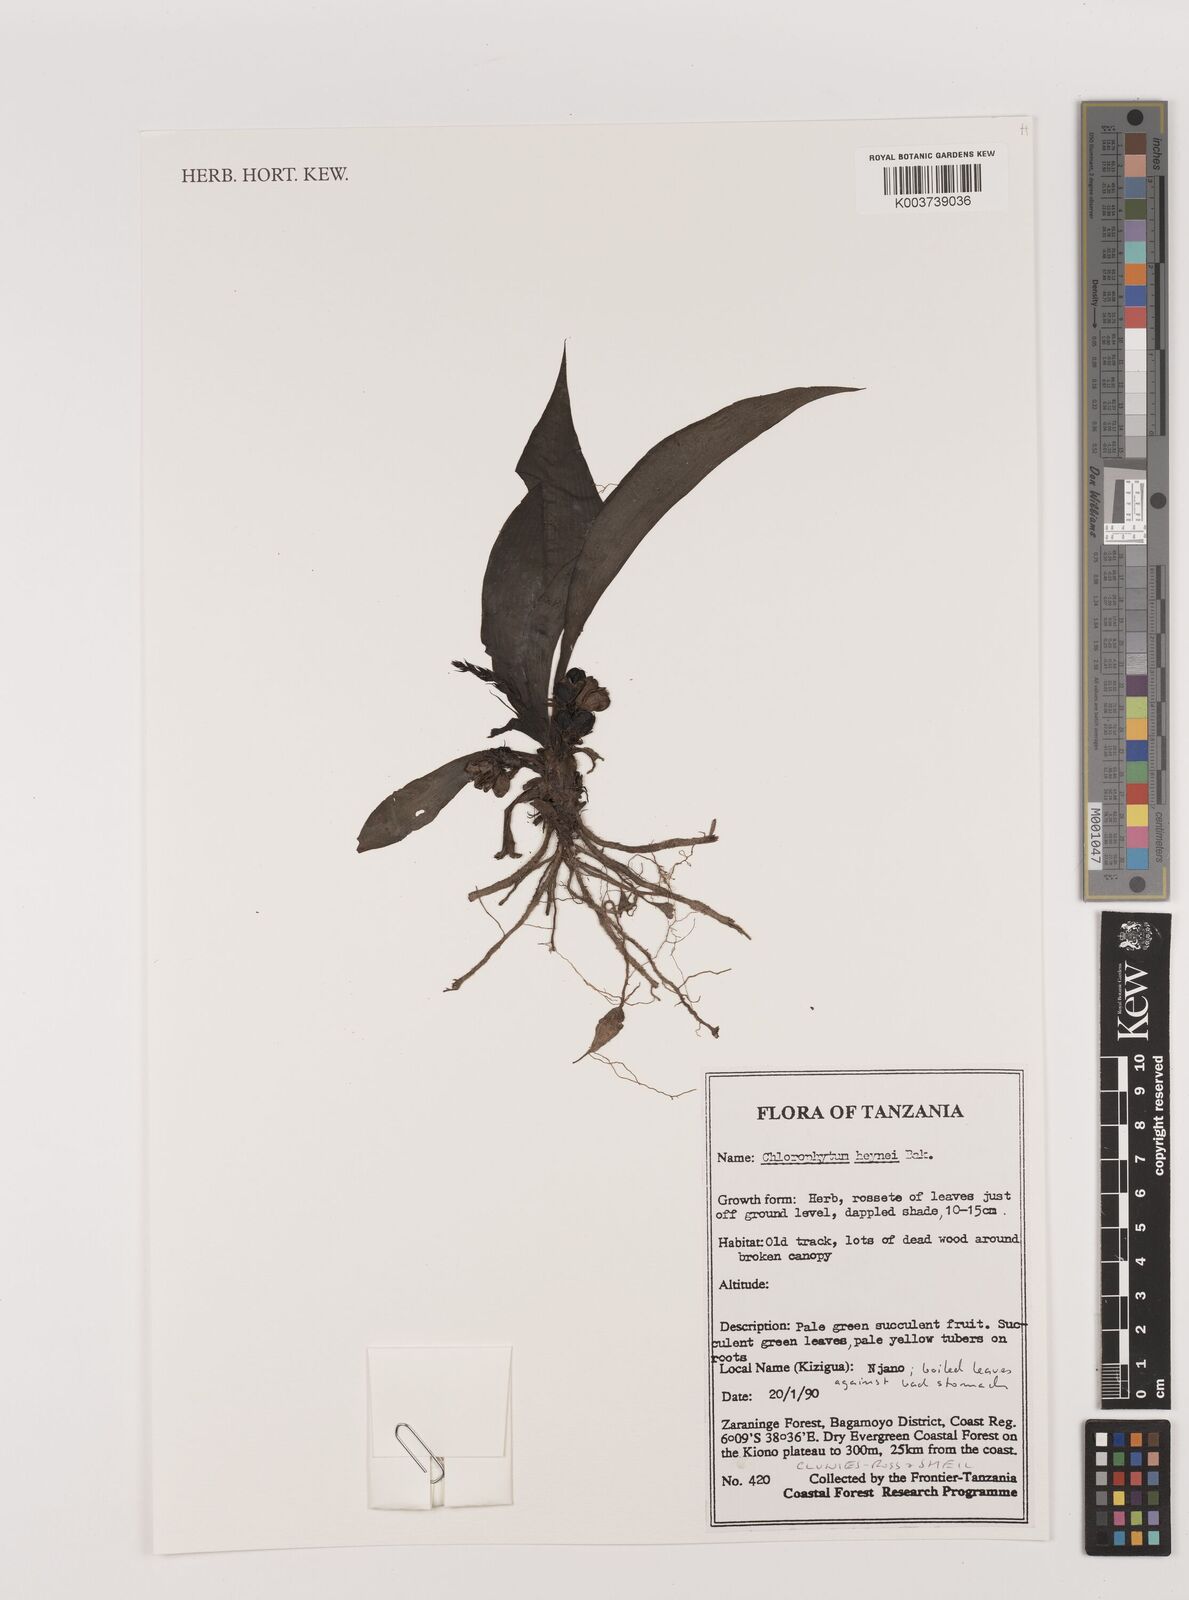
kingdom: Plantae
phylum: Tracheophyta
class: Liliopsida
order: Asparagales
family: Asparagaceae
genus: Chlorophytum
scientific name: Chlorophytum heynei
